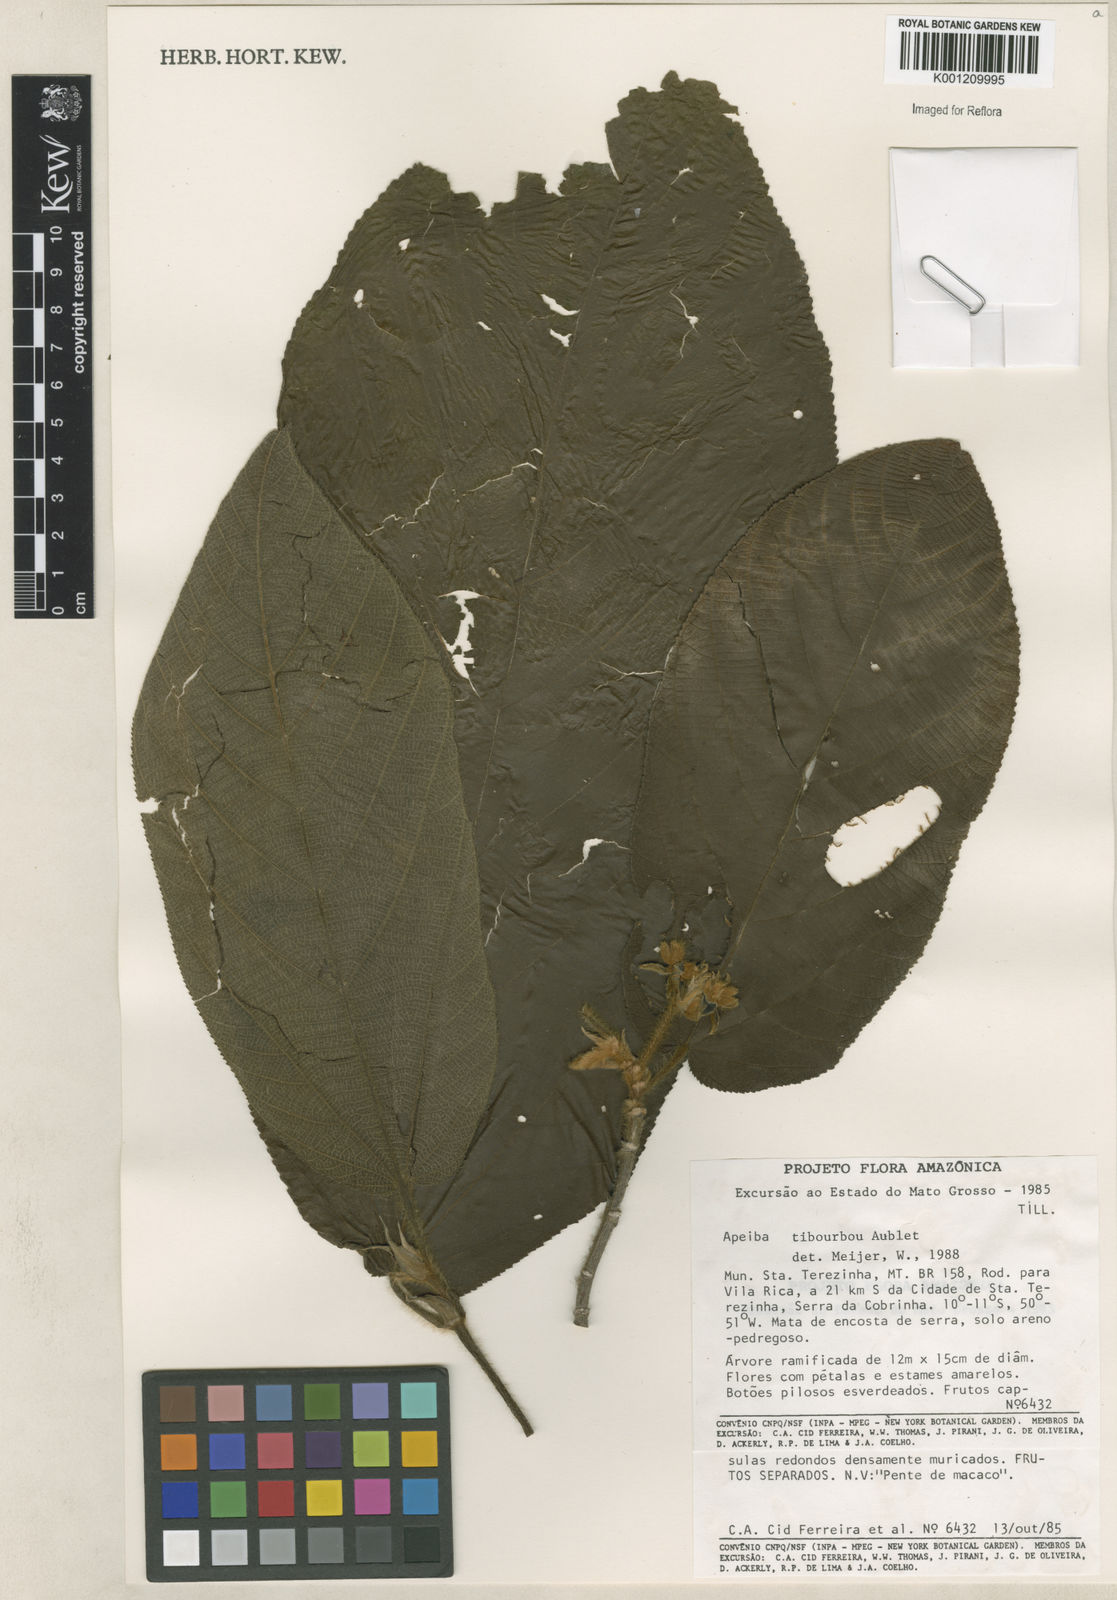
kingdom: Plantae
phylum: Tracheophyta
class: Magnoliopsida
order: Malvales
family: Malvaceae
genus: Apeiba
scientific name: Apeiba tibourbou
